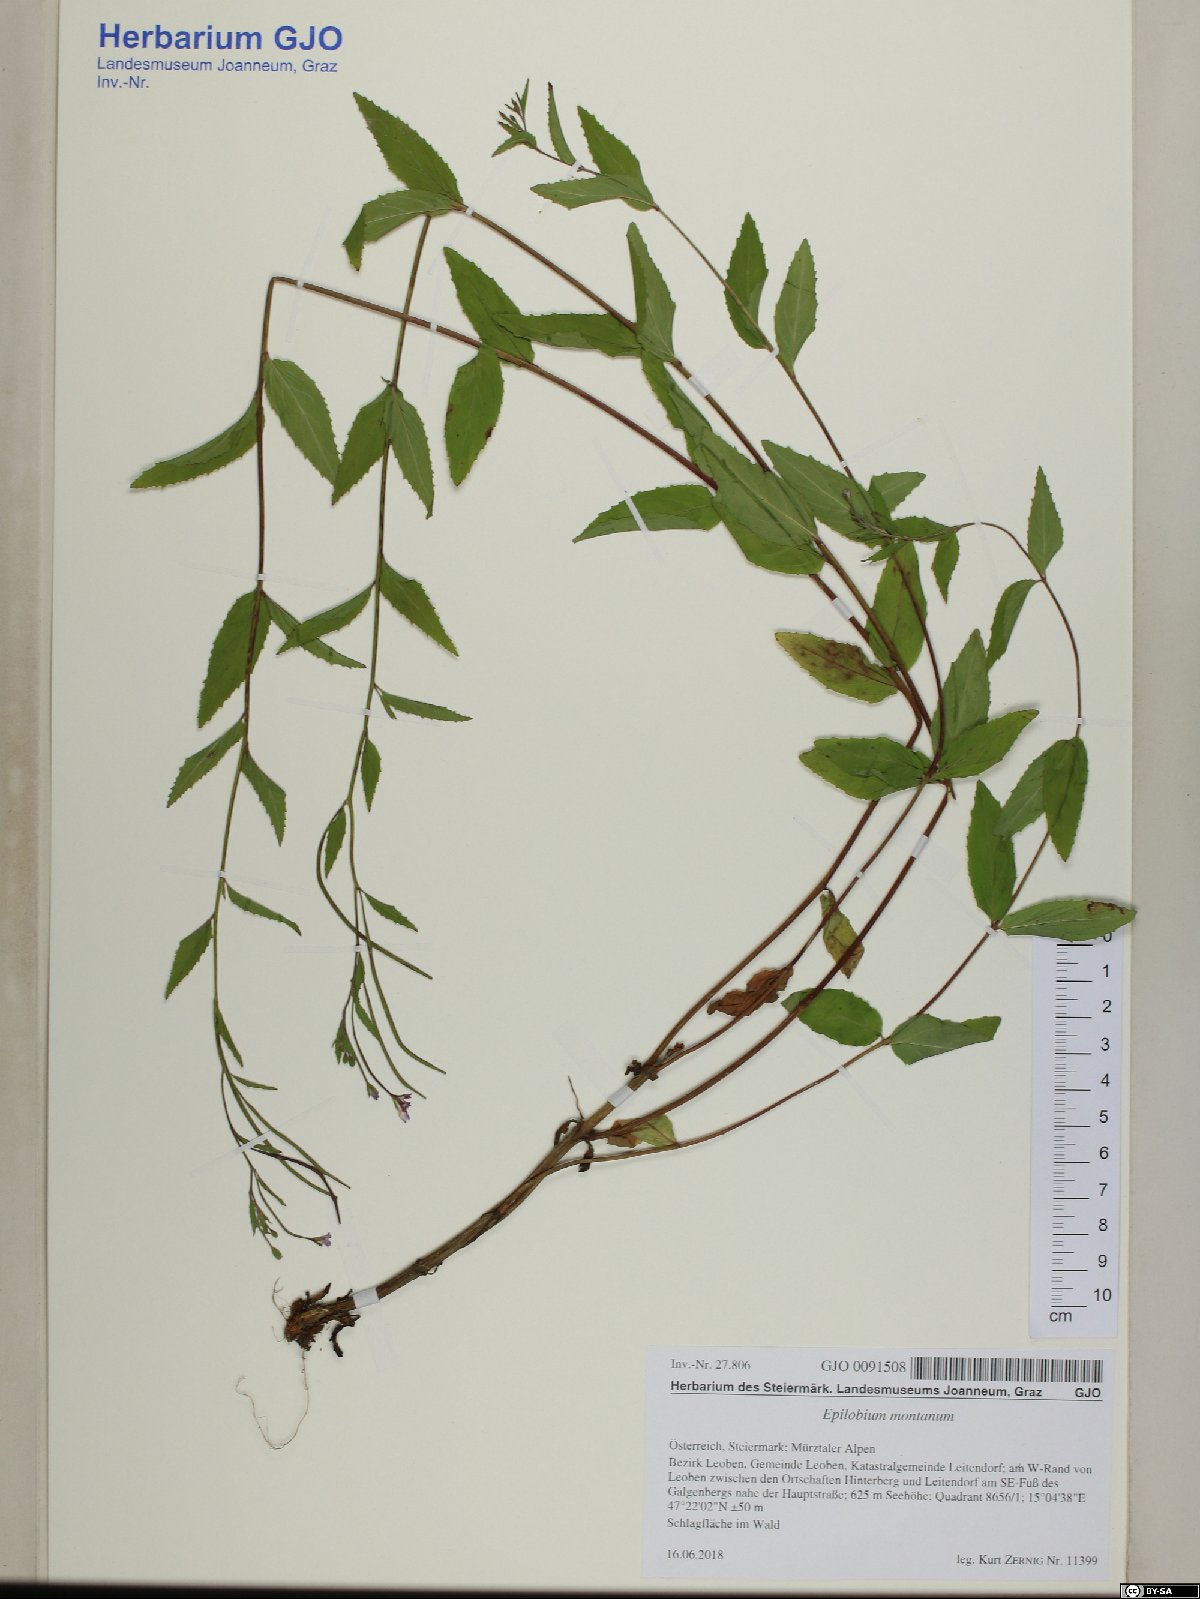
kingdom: Plantae
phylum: Tracheophyta
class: Magnoliopsida
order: Myrtales
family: Onagraceae
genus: Epilobium
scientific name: Epilobium montanum
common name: Broad-leaved willowherb
